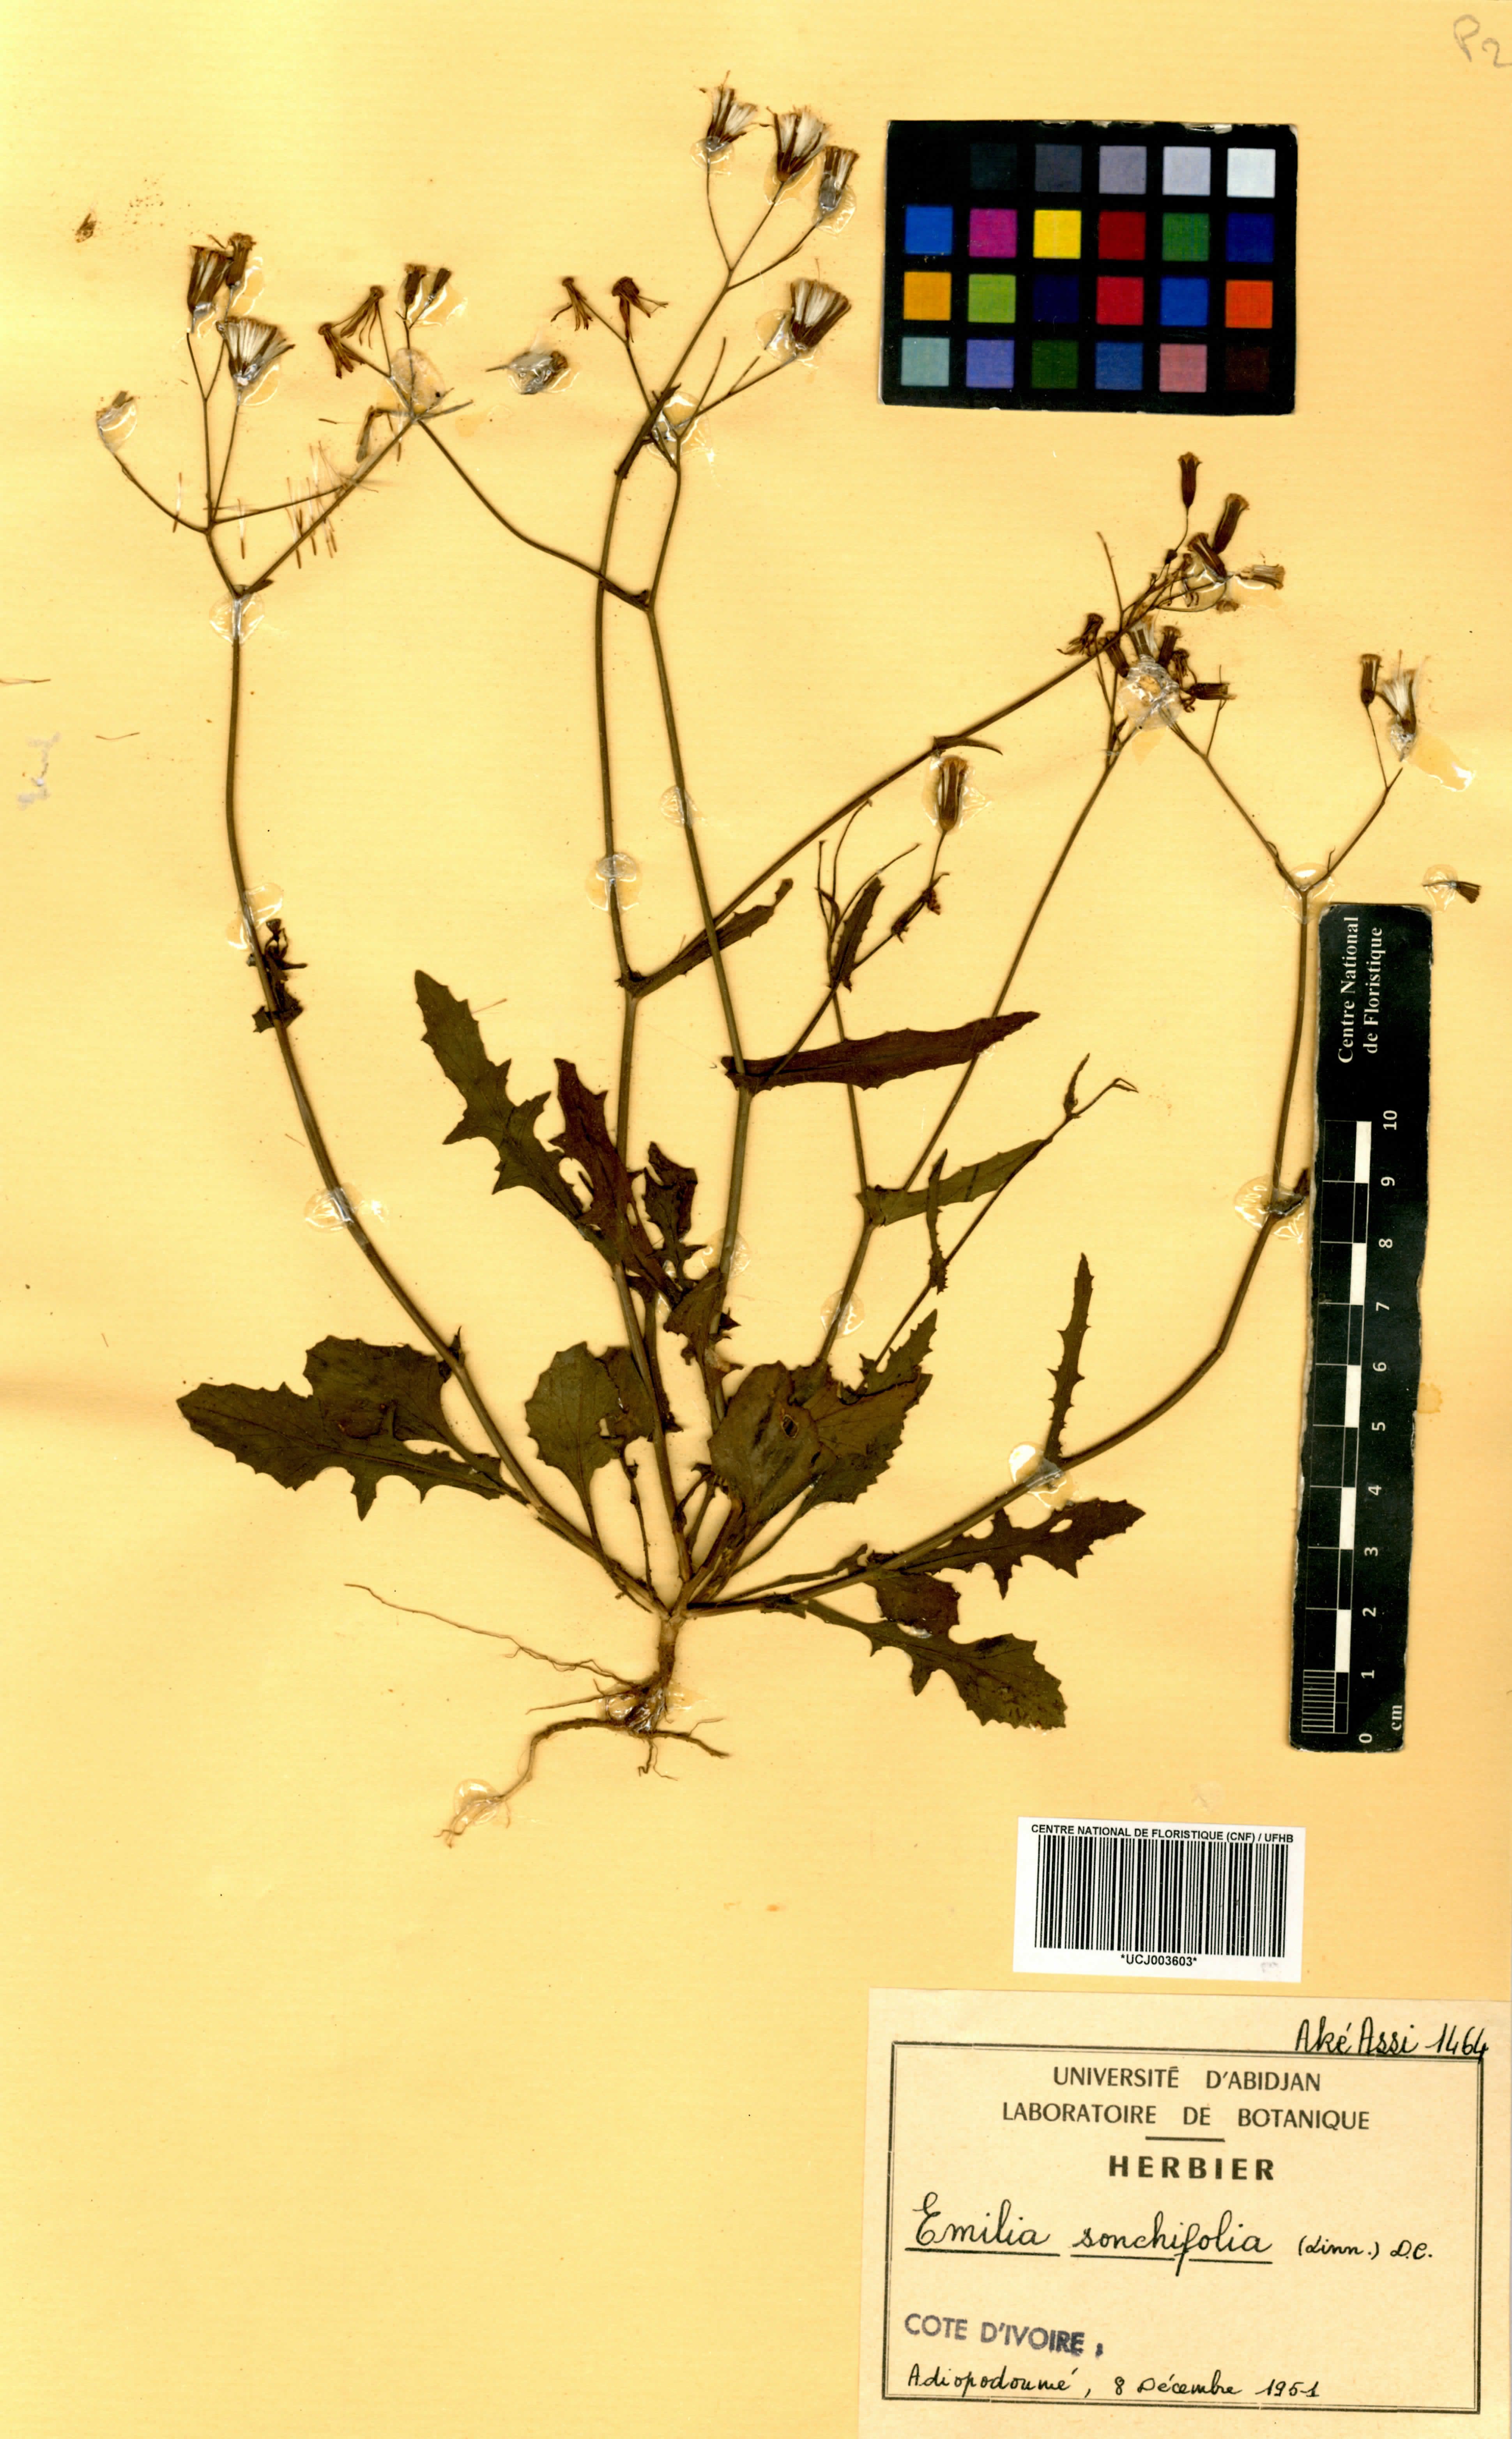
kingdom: Plantae
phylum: Tracheophyta
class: Magnoliopsida
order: Asterales
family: Asteraceae
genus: Emilia
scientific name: Emilia sonchifolia
